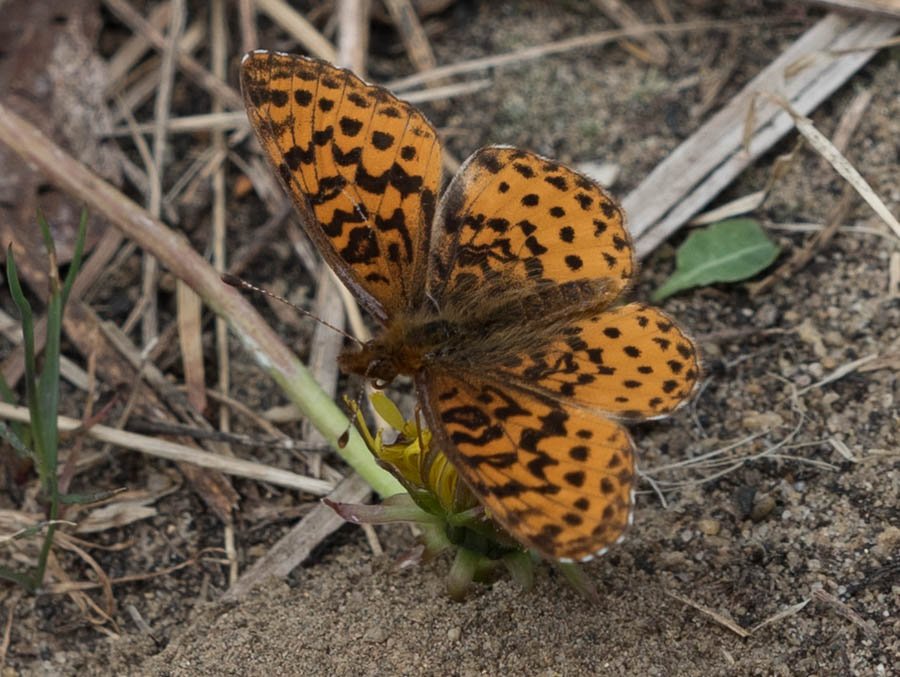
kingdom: Animalia
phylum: Arthropoda
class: Insecta
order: Lepidoptera
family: Nymphalidae
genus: Clossiana
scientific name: Clossiana toddi
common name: Meadow Fritillary
